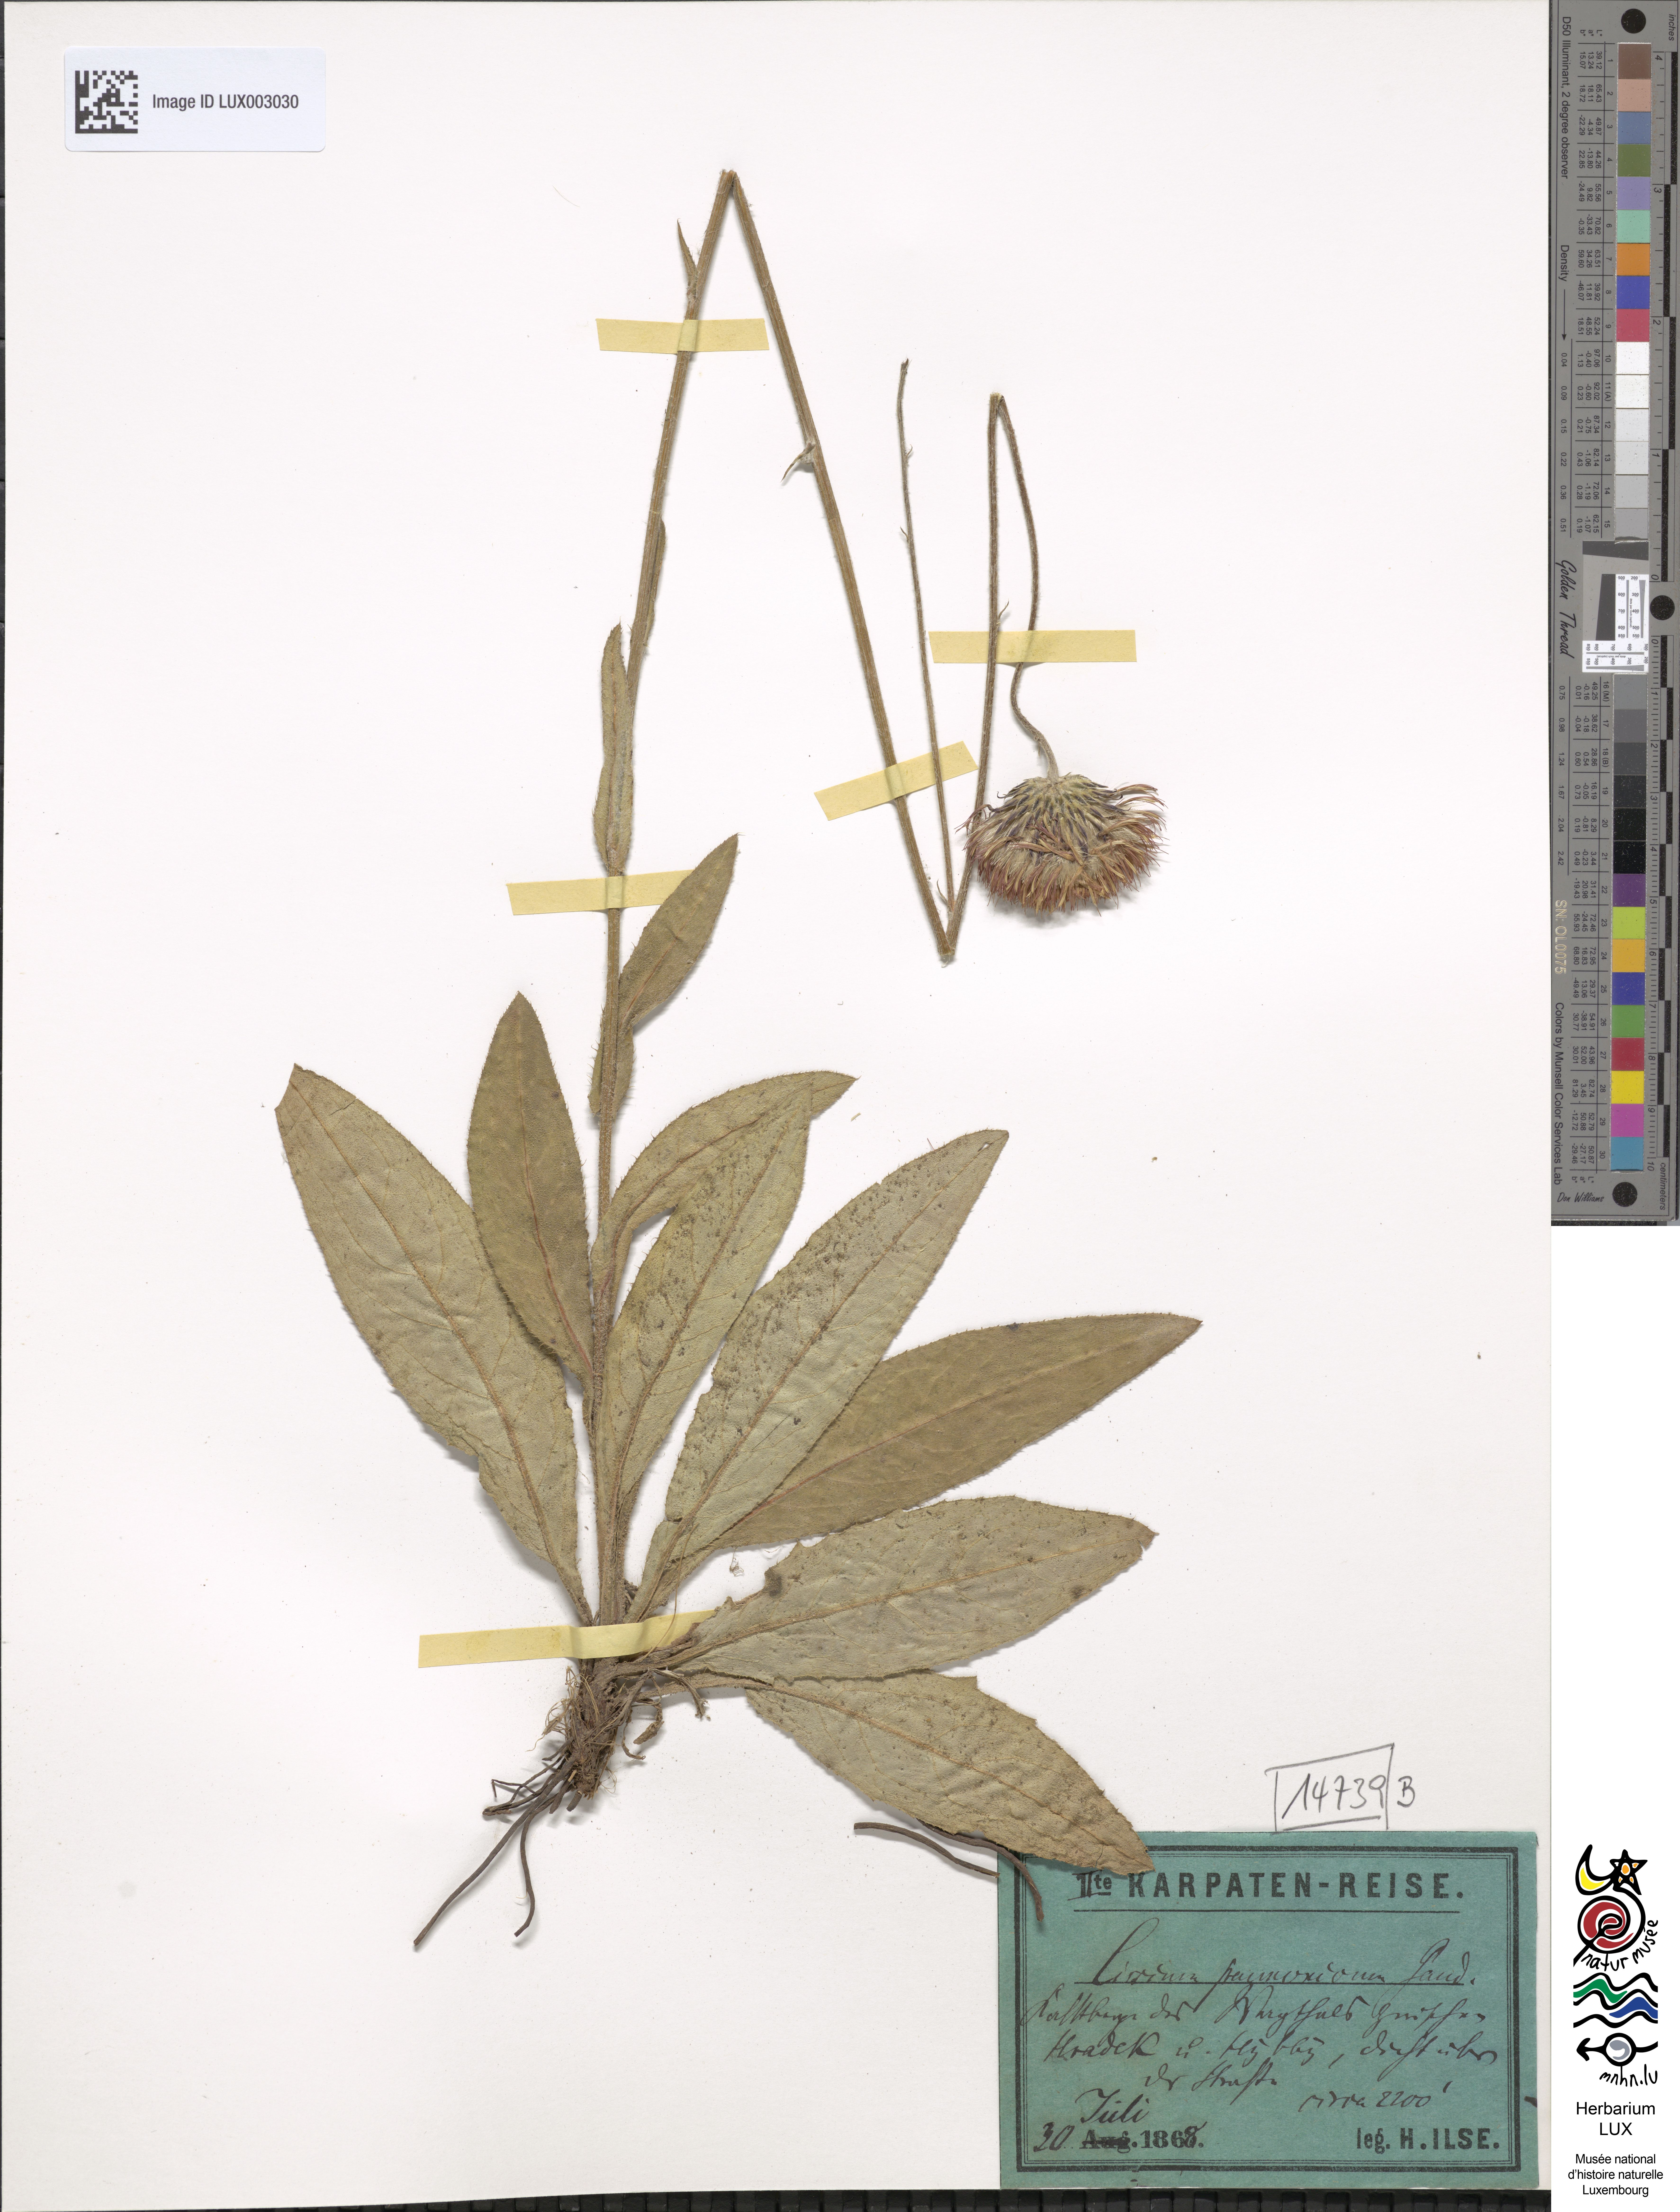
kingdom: Plantae
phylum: Tracheophyta
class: Magnoliopsida
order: Asterales
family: Asteraceae
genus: Cirsium
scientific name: Cirsium pannonicum
